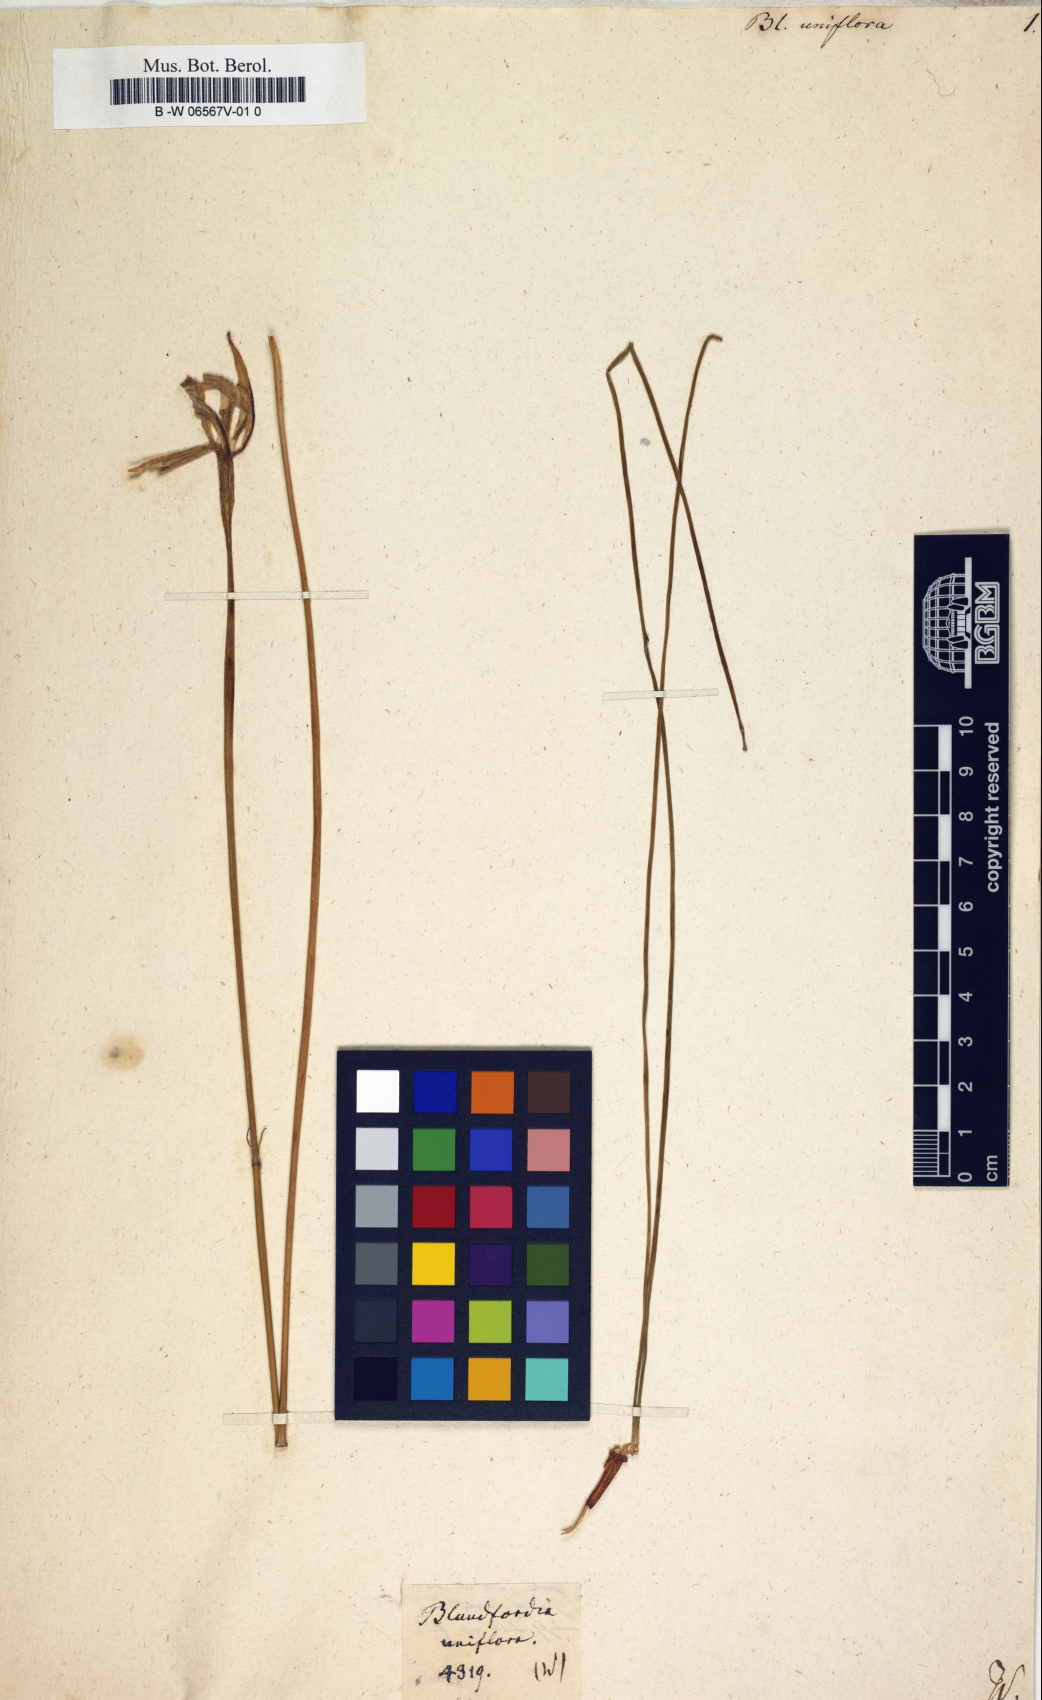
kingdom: Plantae
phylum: Tracheophyta
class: Liliopsida
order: Liliales
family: Liliaceae
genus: Tulipa
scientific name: Tulipa sylvestris
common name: Wild tulip
